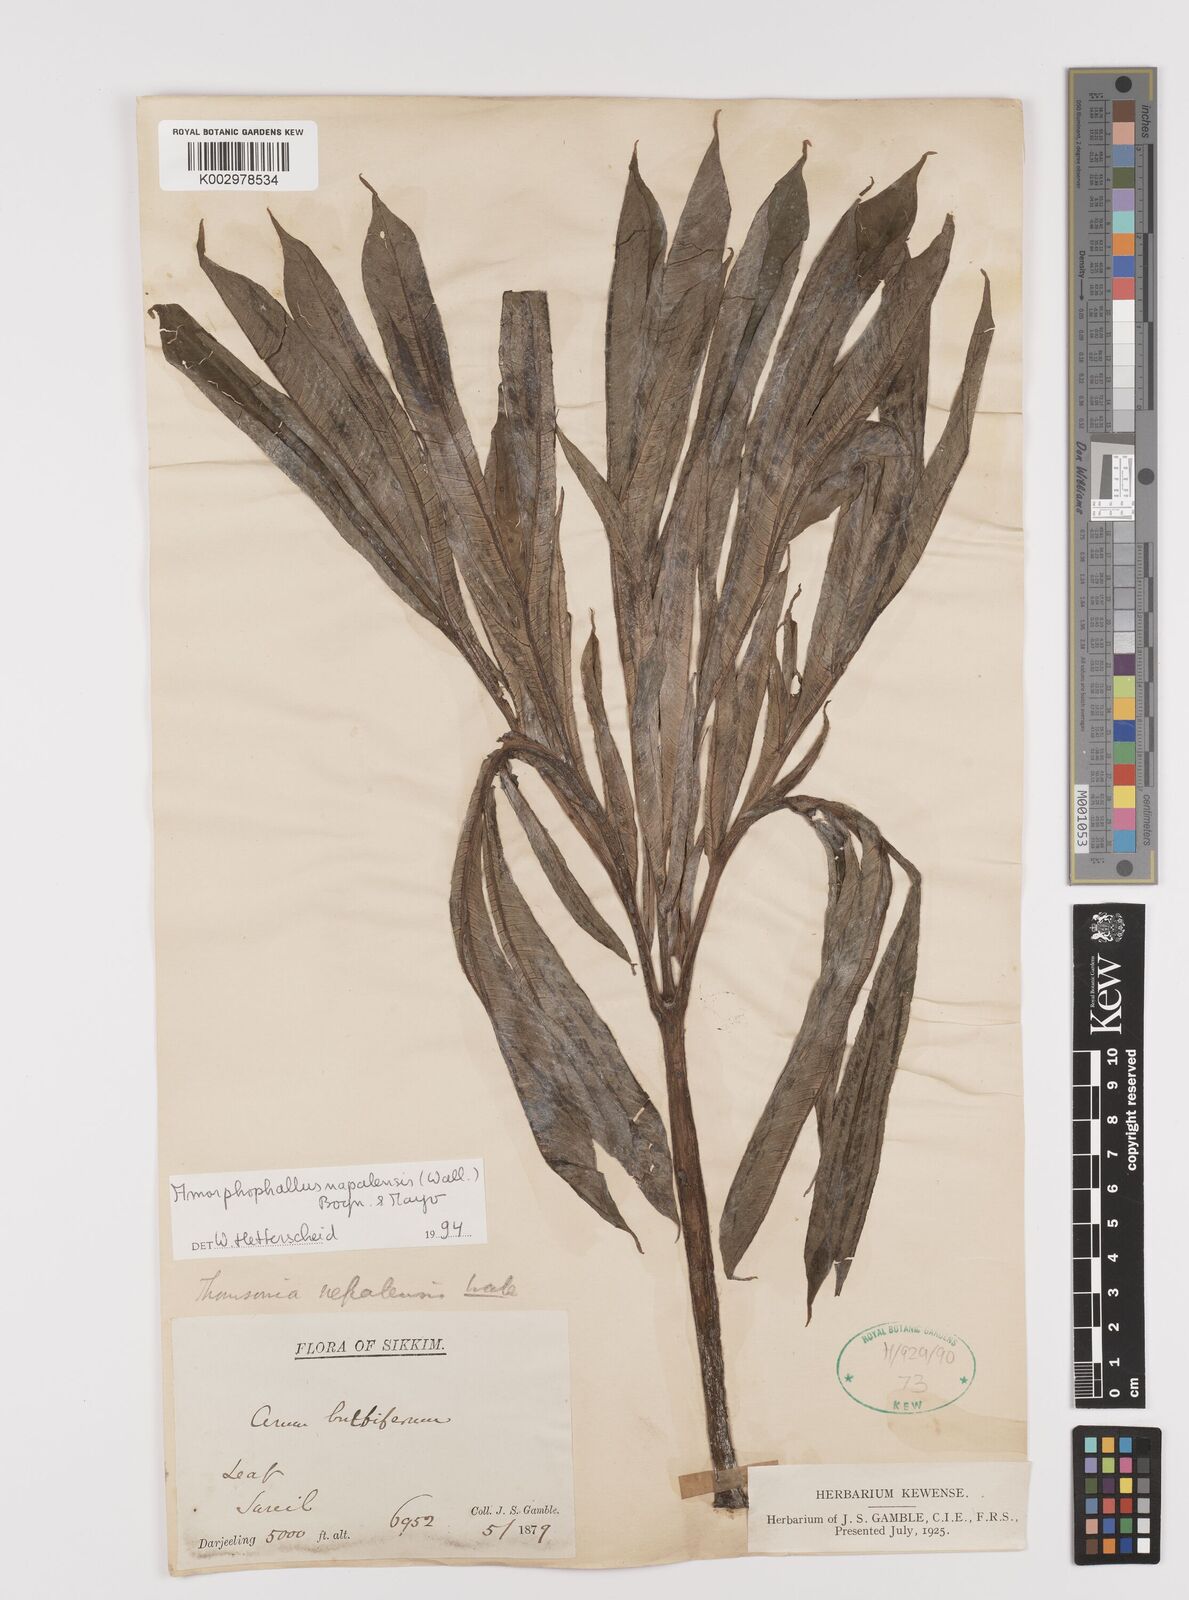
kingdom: Plantae
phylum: Tracheophyta
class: Liliopsida
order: Alismatales
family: Araceae
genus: Amorphophallus
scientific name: Amorphophallus napalensis
